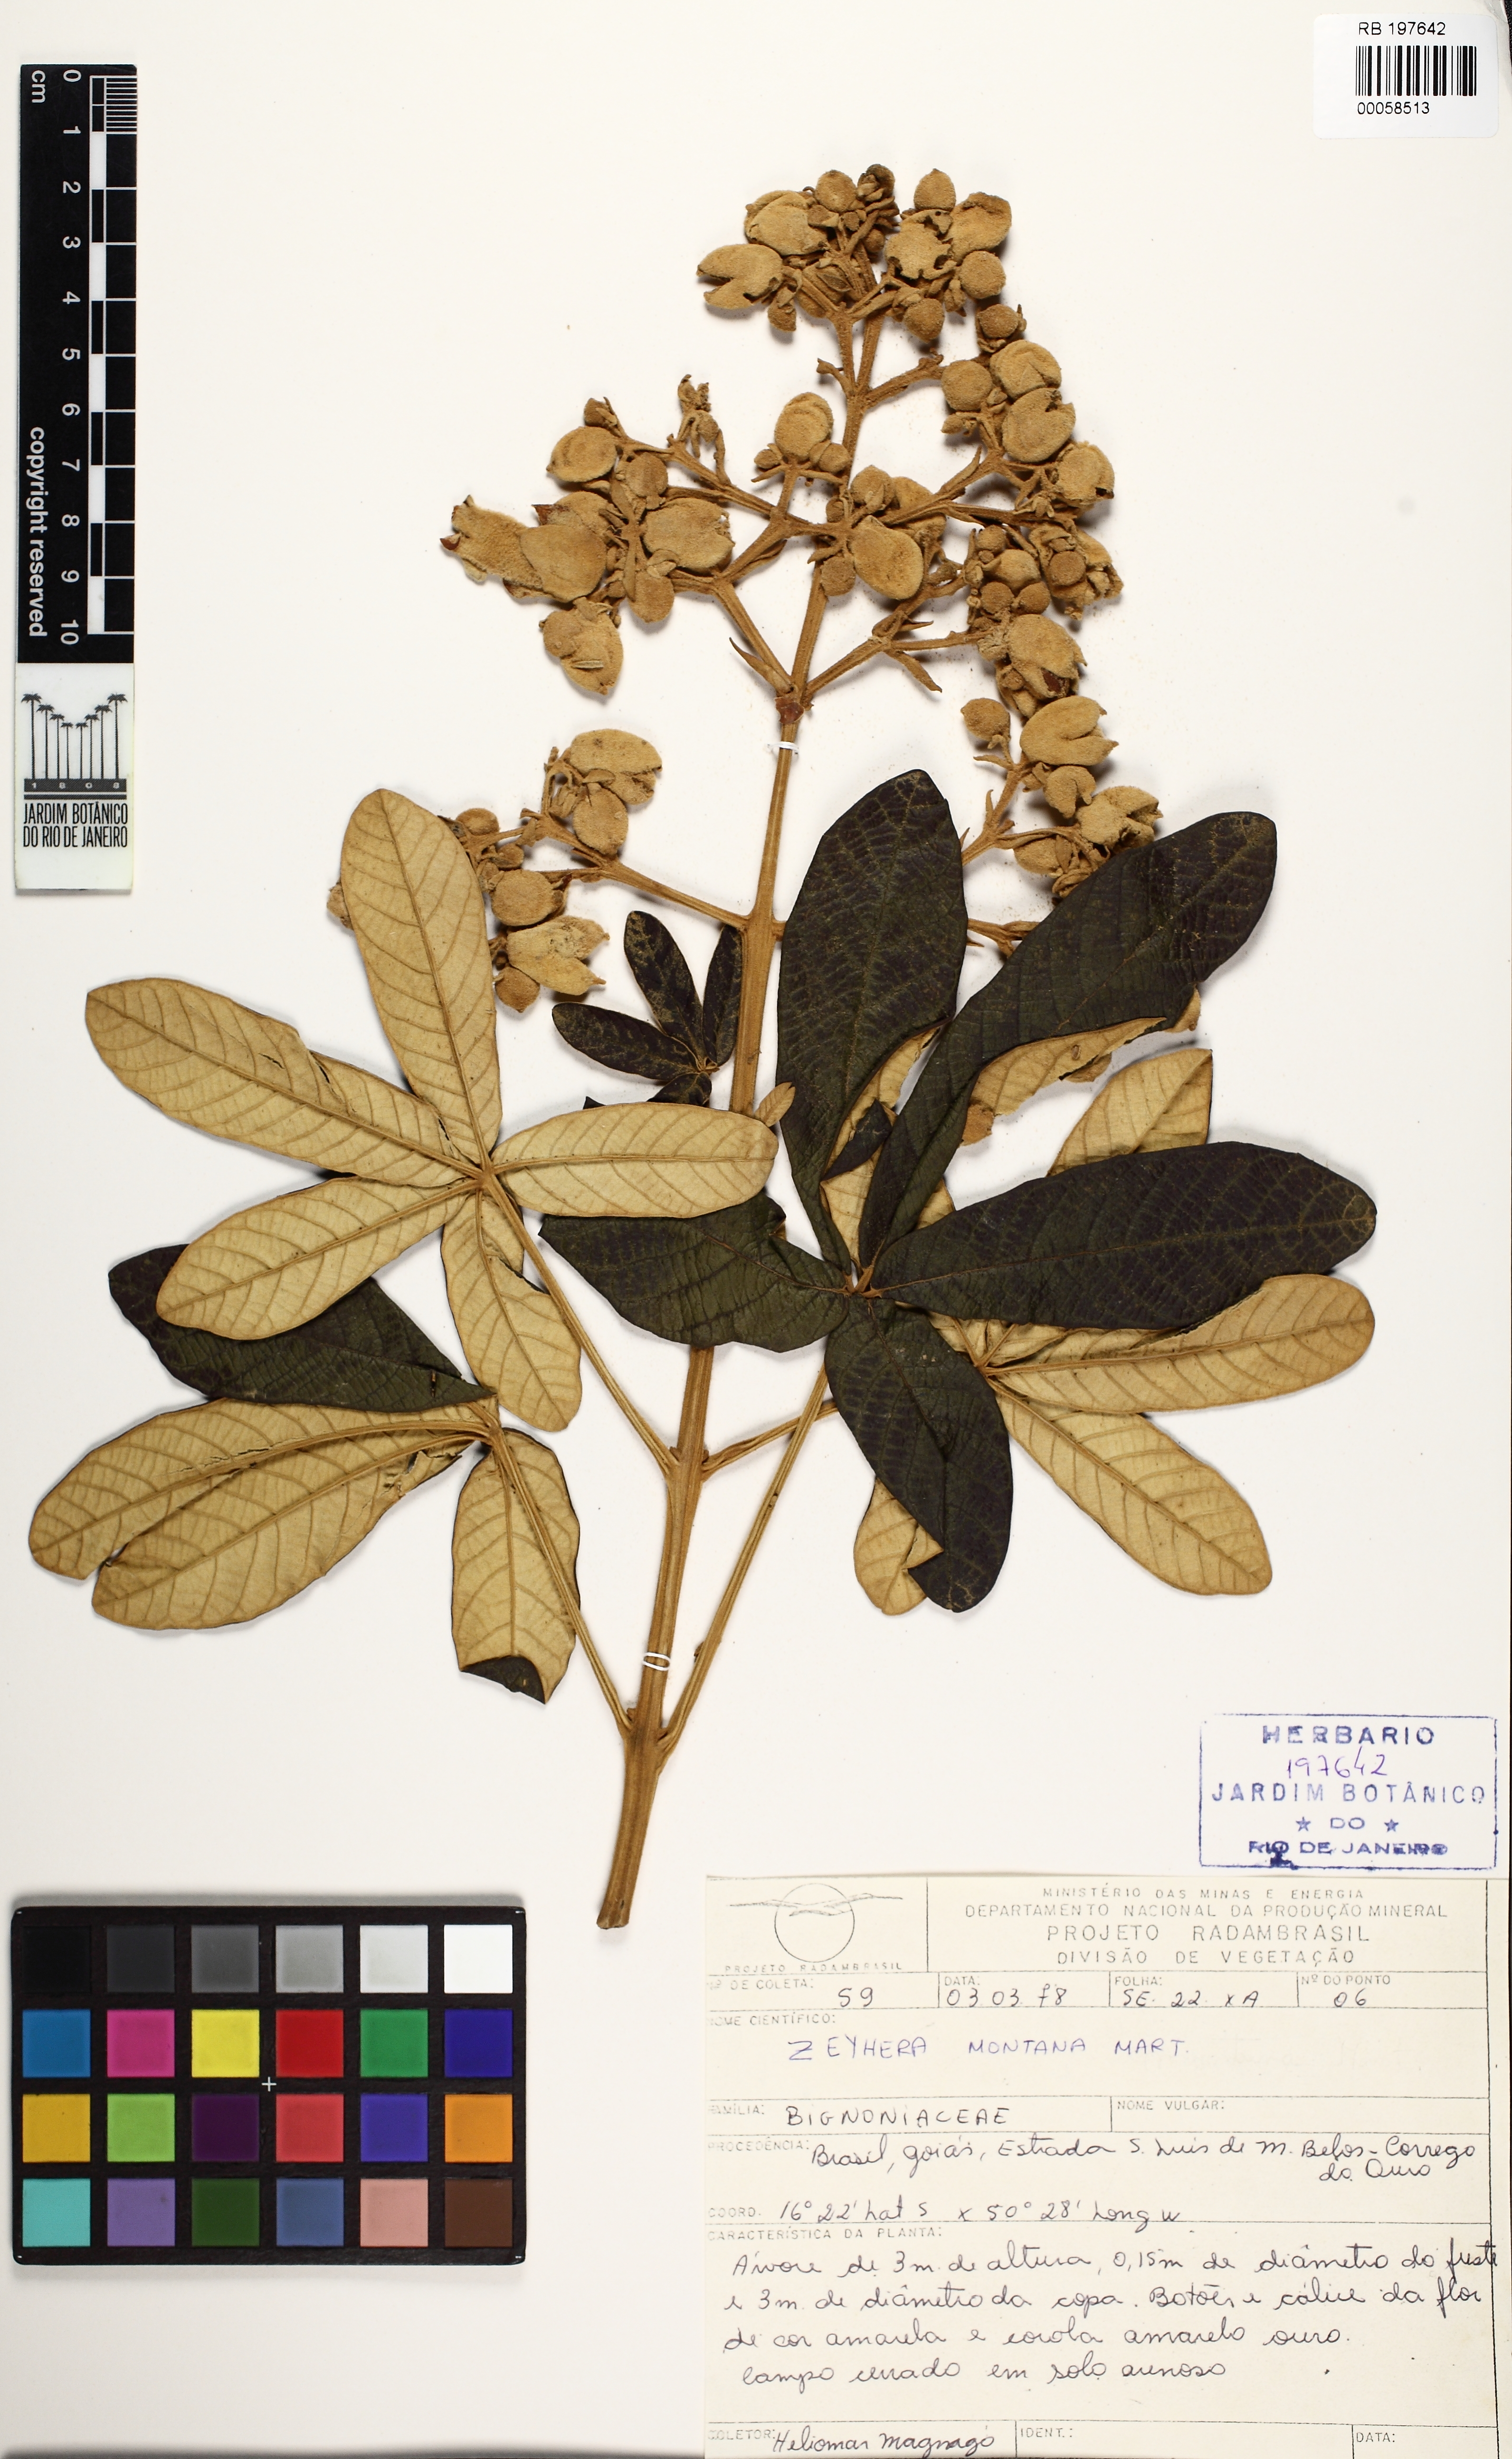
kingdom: Plantae
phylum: Tracheophyta
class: Magnoliopsida
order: Lamiales
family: Bignoniaceae
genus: Zeyheria
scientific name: Zeyheria montana
